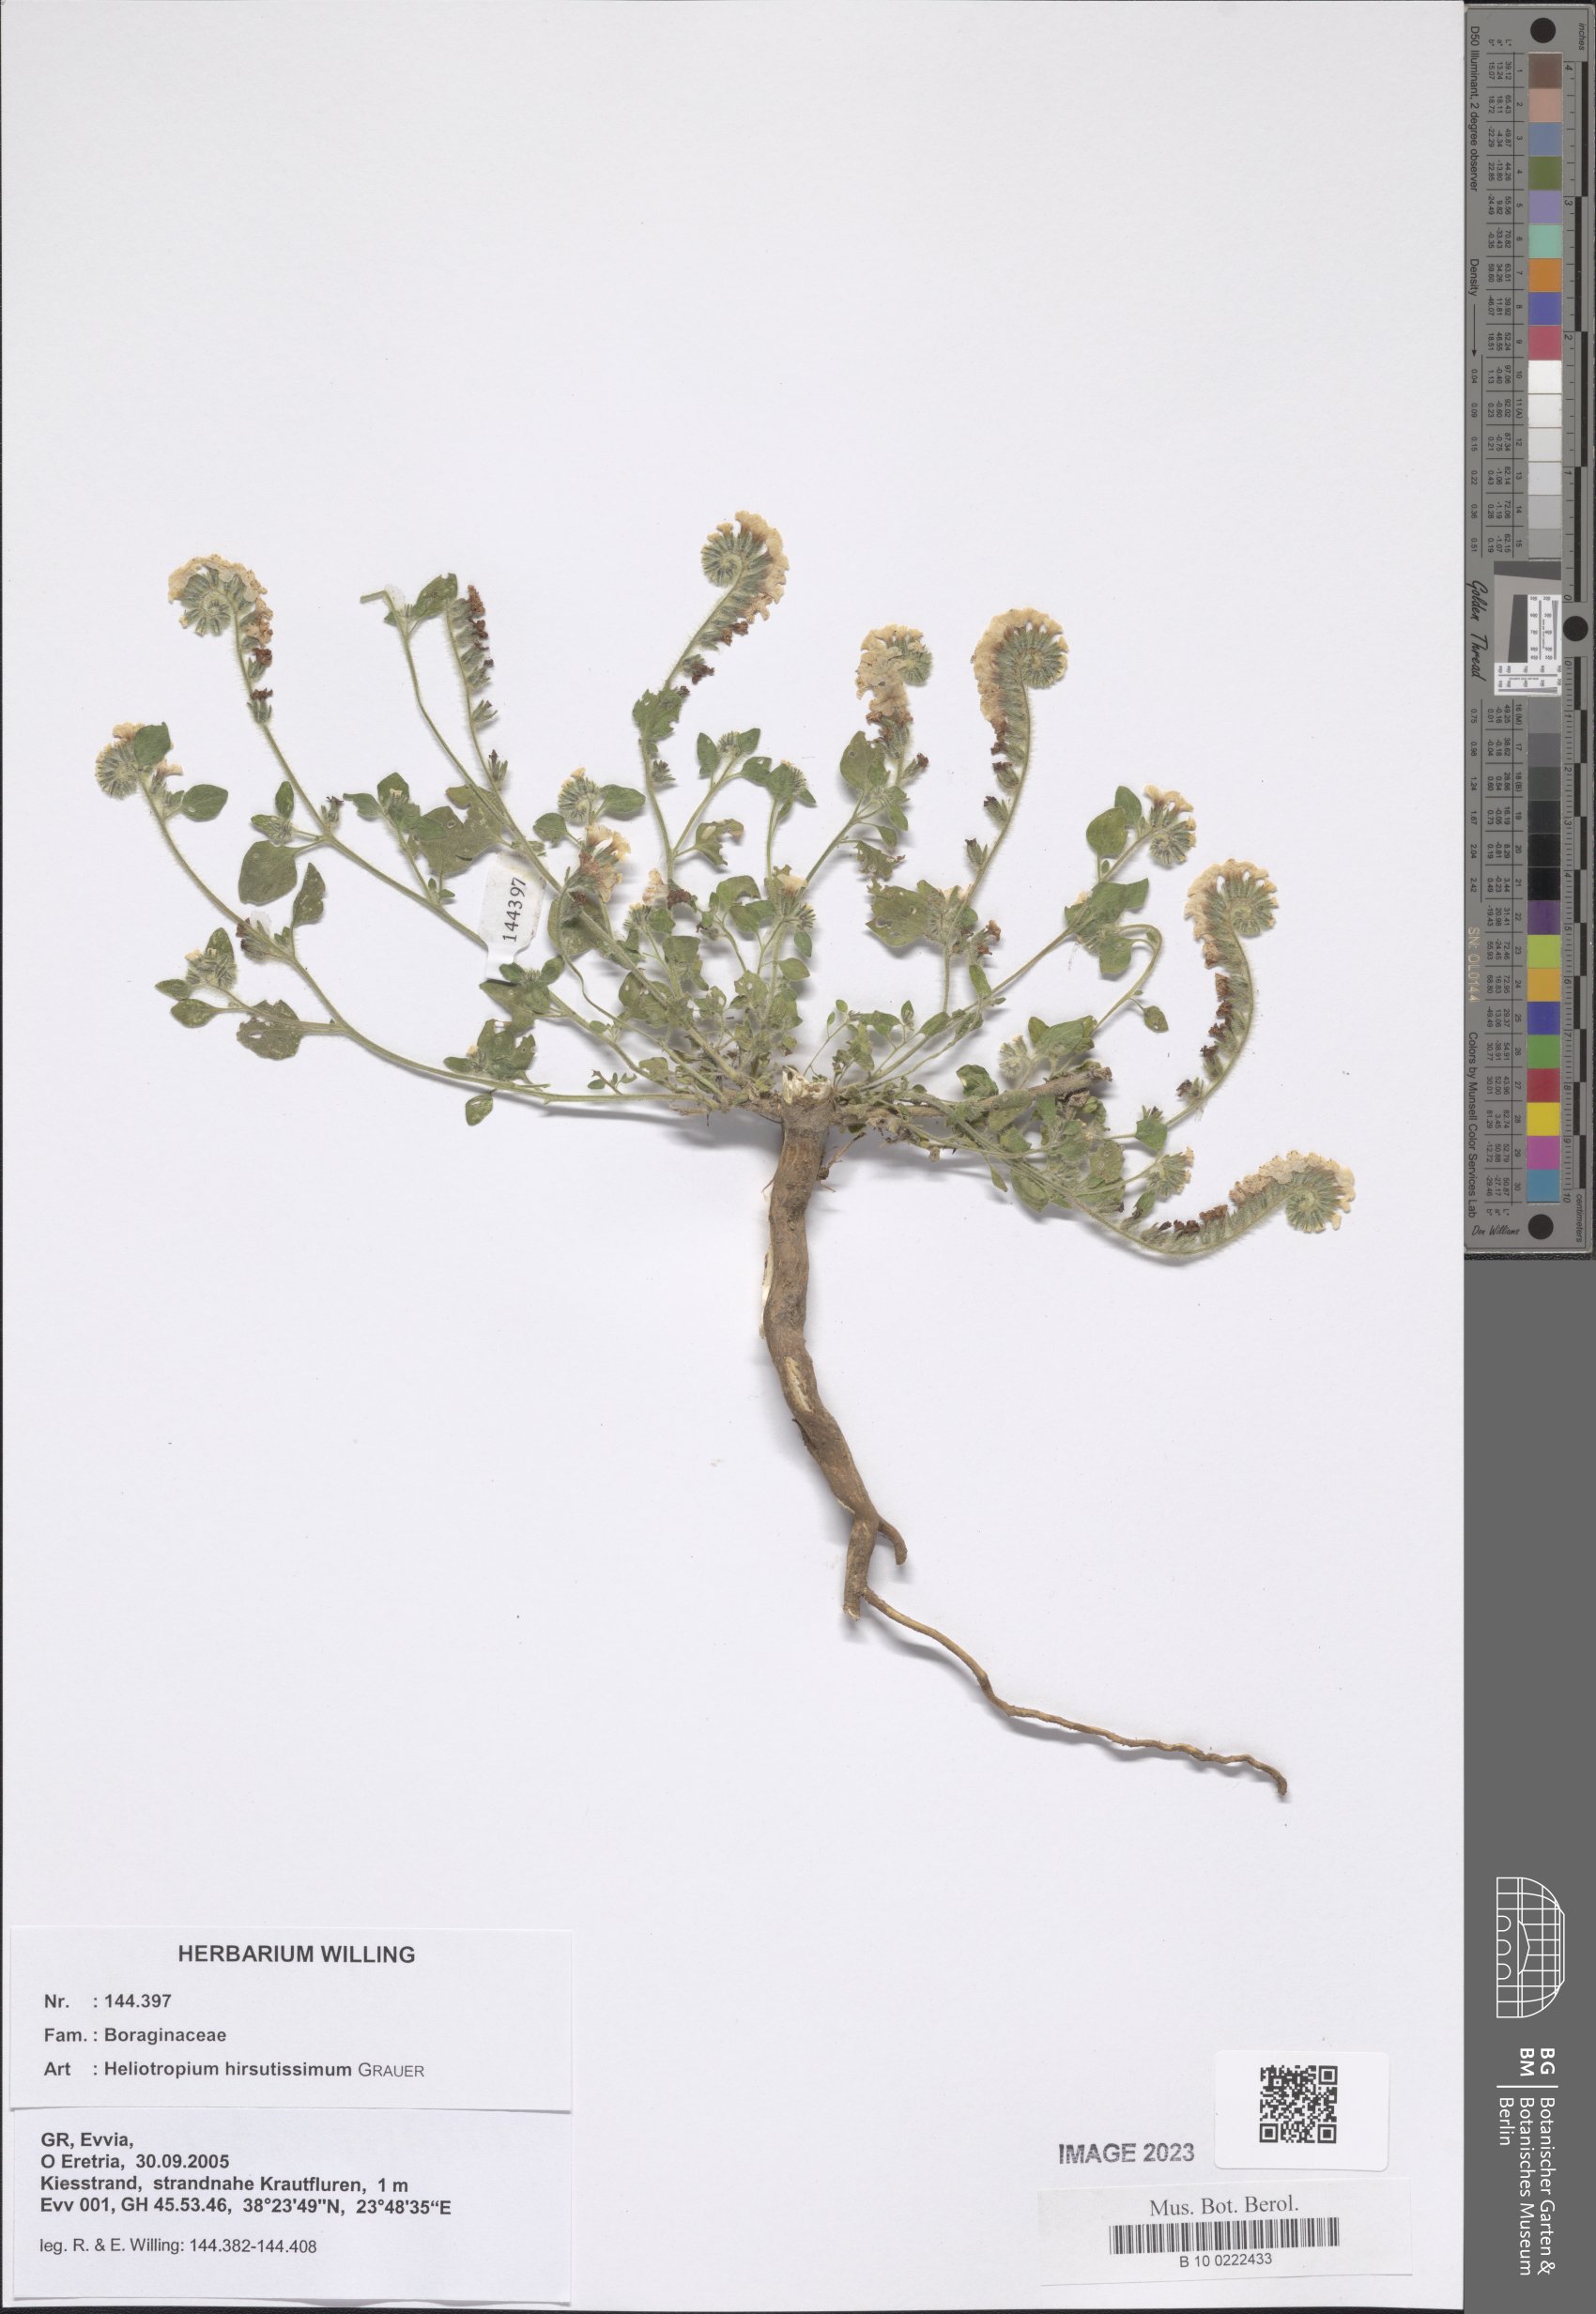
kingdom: Plantae
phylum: Tracheophyta
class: Magnoliopsida
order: Boraginales
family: Heliotropiaceae
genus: Heliotropium
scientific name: Heliotropium hirsutissimum
